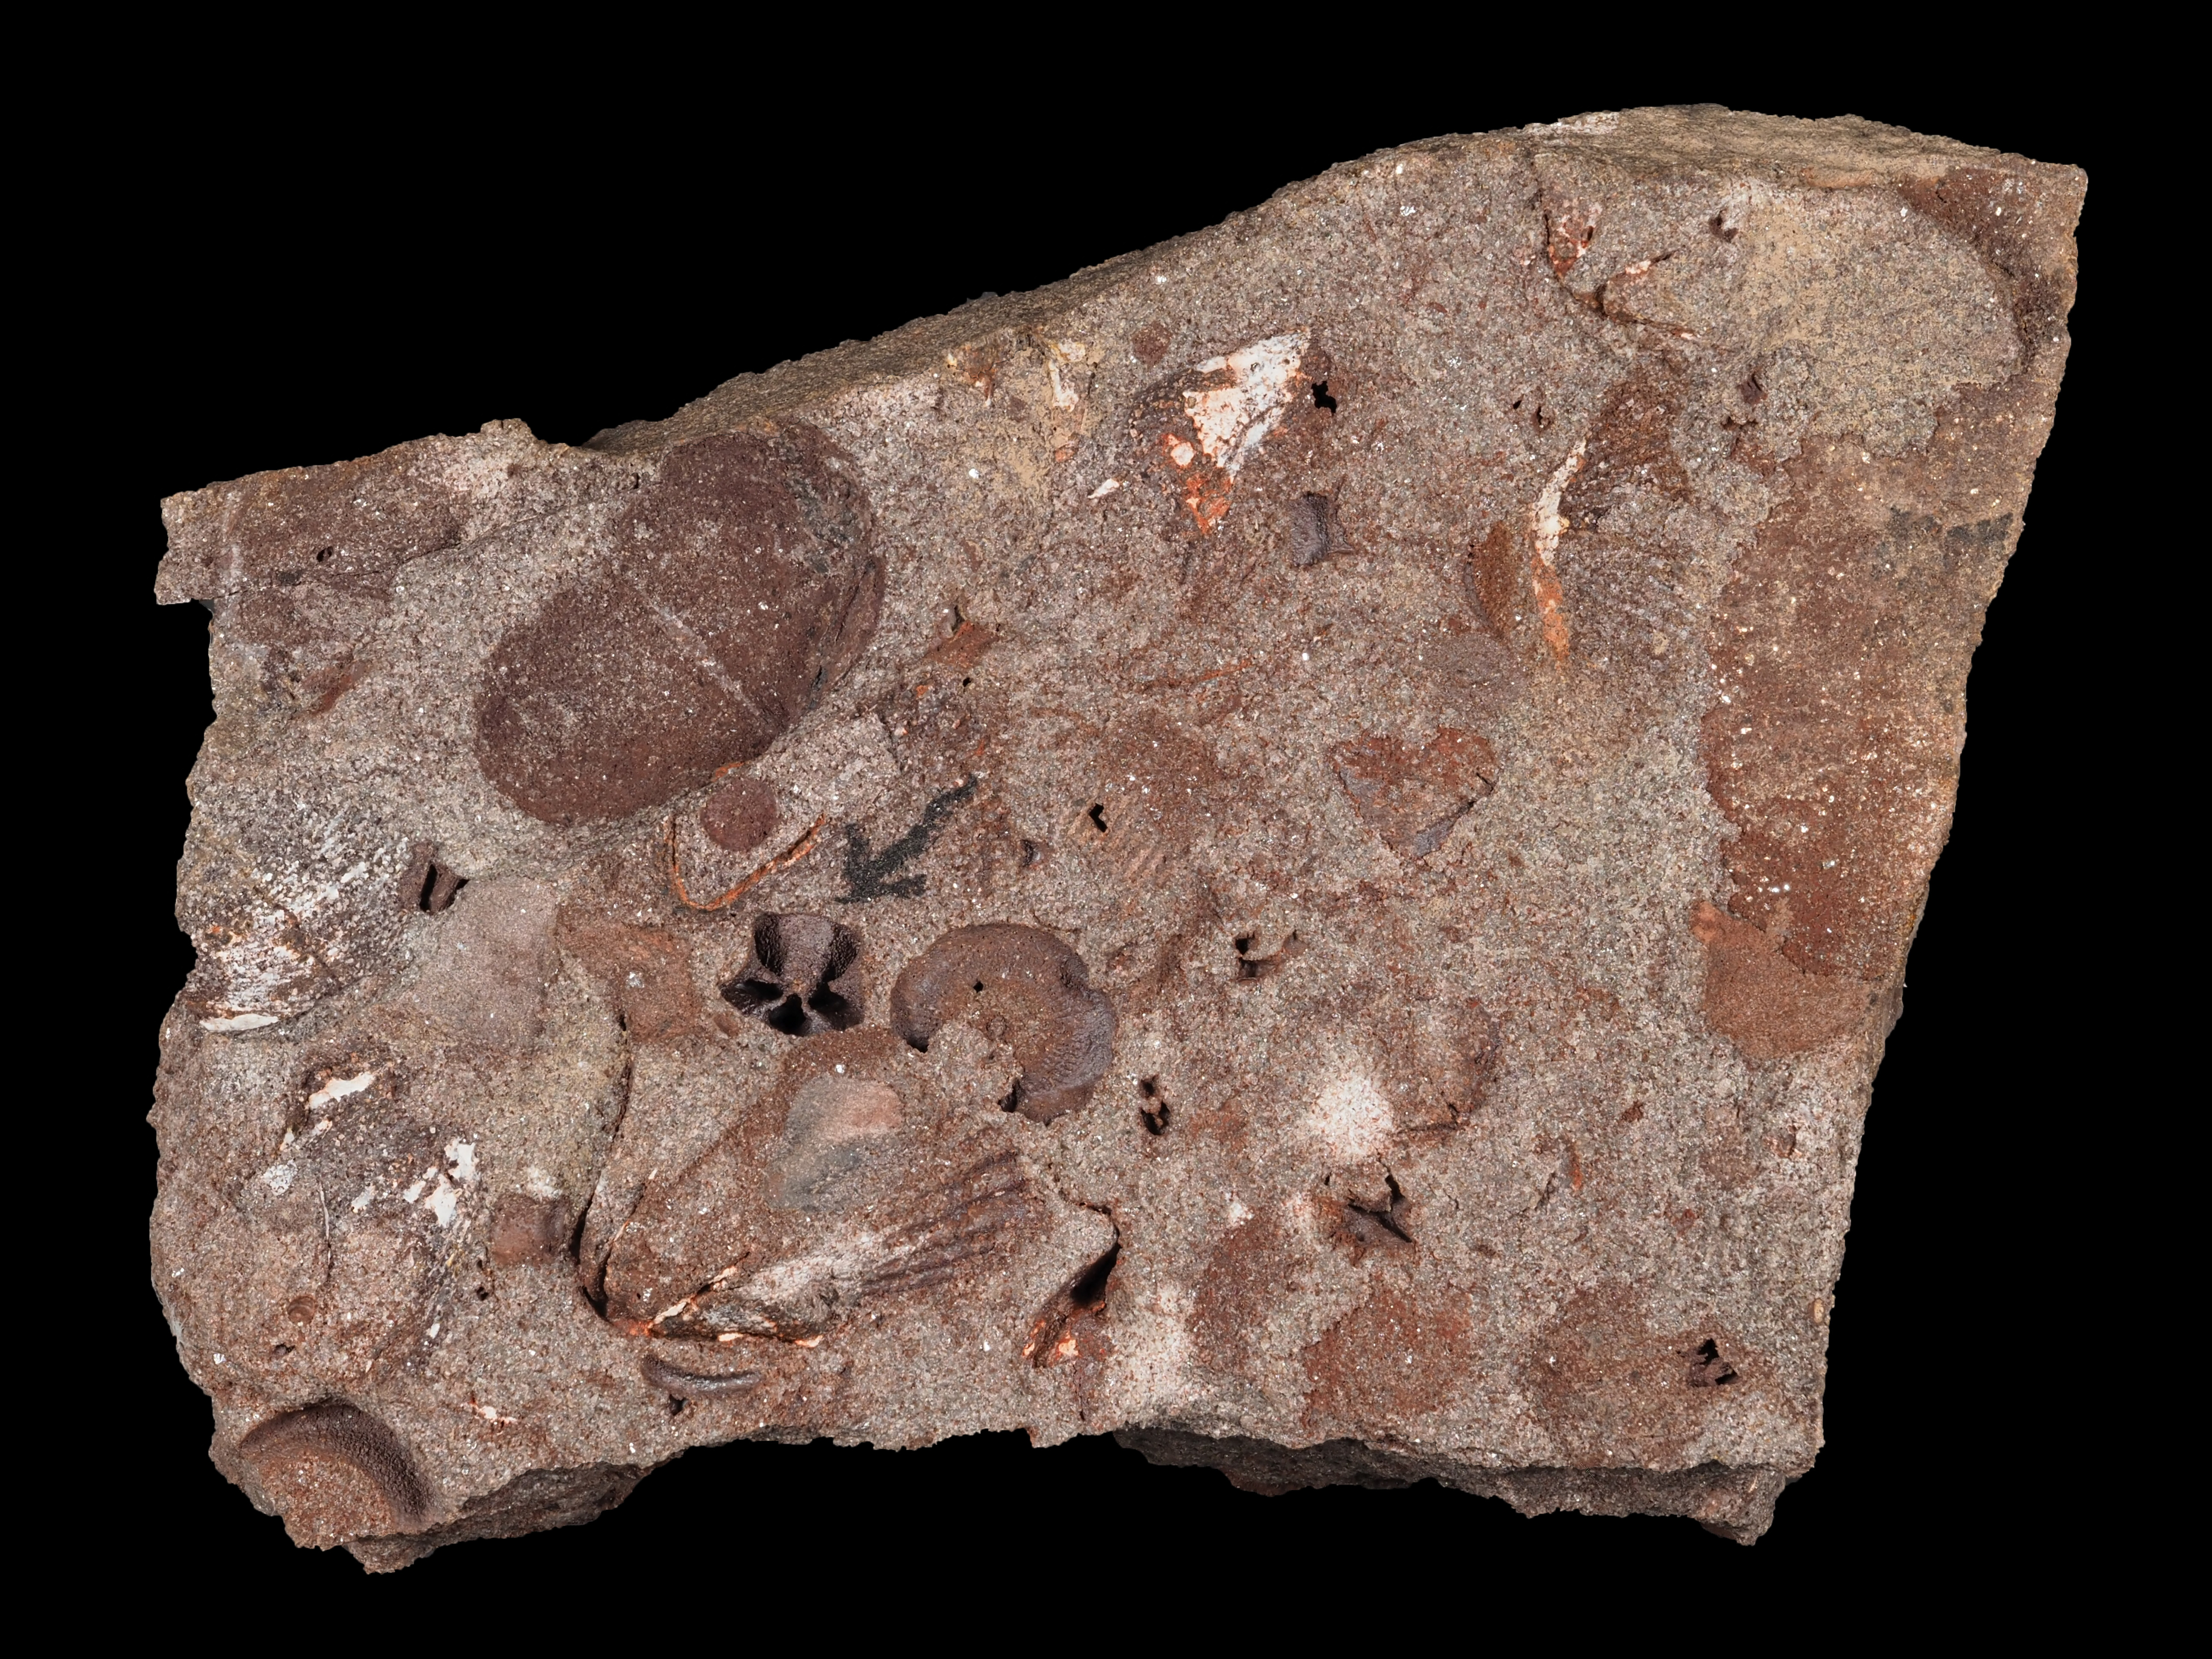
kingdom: Animalia
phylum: Echinodermata
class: Crinoidea
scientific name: Crinoidea
